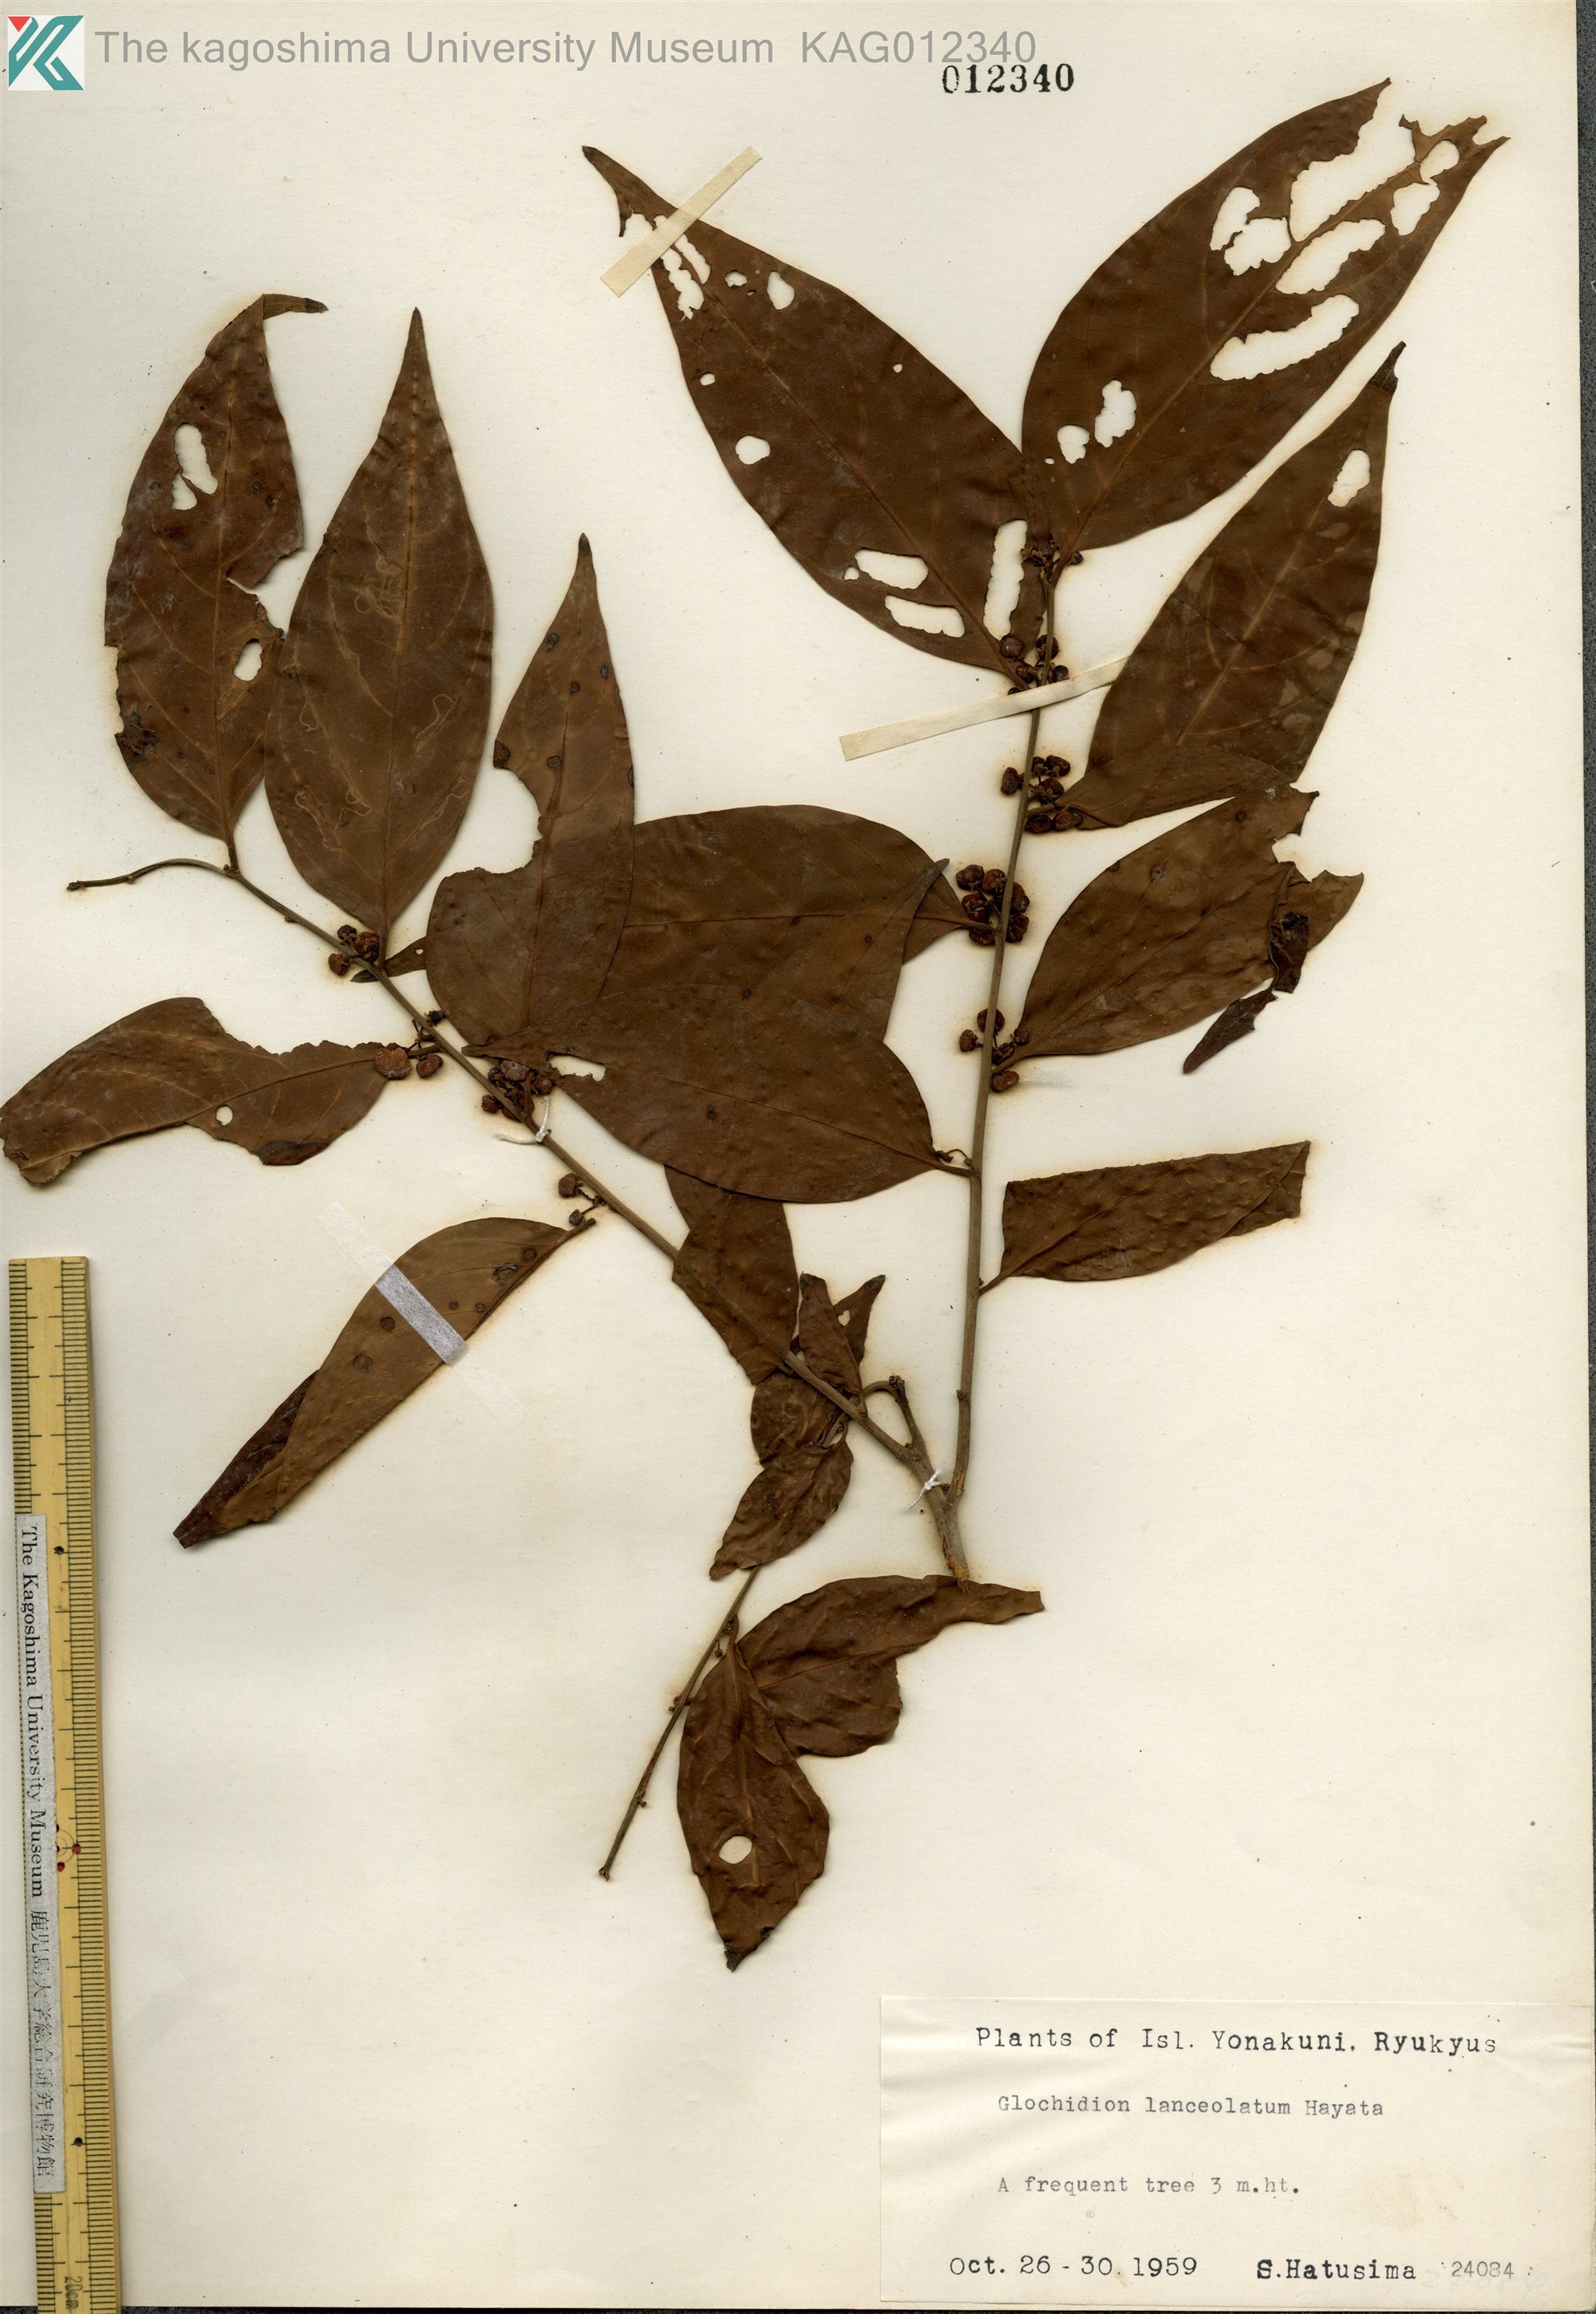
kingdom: Plantae
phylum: Tracheophyta
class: Magnoliopsida
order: Malpighiales
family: Phyllanthaceae
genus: Glochidion
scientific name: Glochidion lanceolatum
